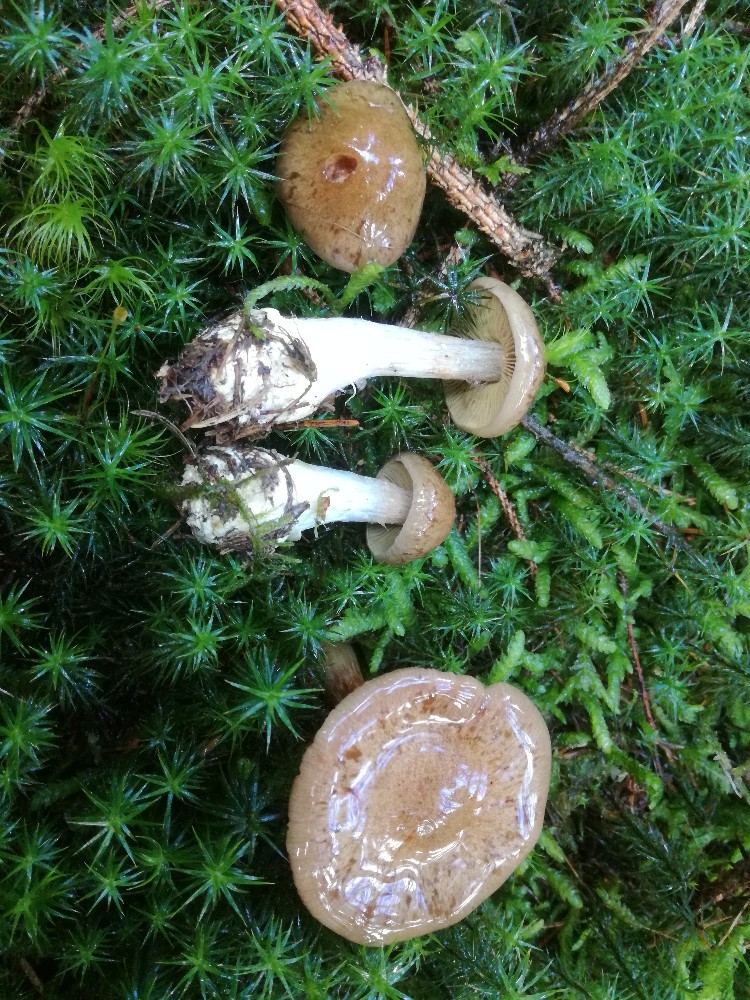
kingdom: Fungi
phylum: Basidiomycota
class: Agaricomycetes
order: Agaricales
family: Cortinariaceae
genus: Thaxterogaster
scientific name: Thaxterogaster scaurus
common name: sump-slørhat
